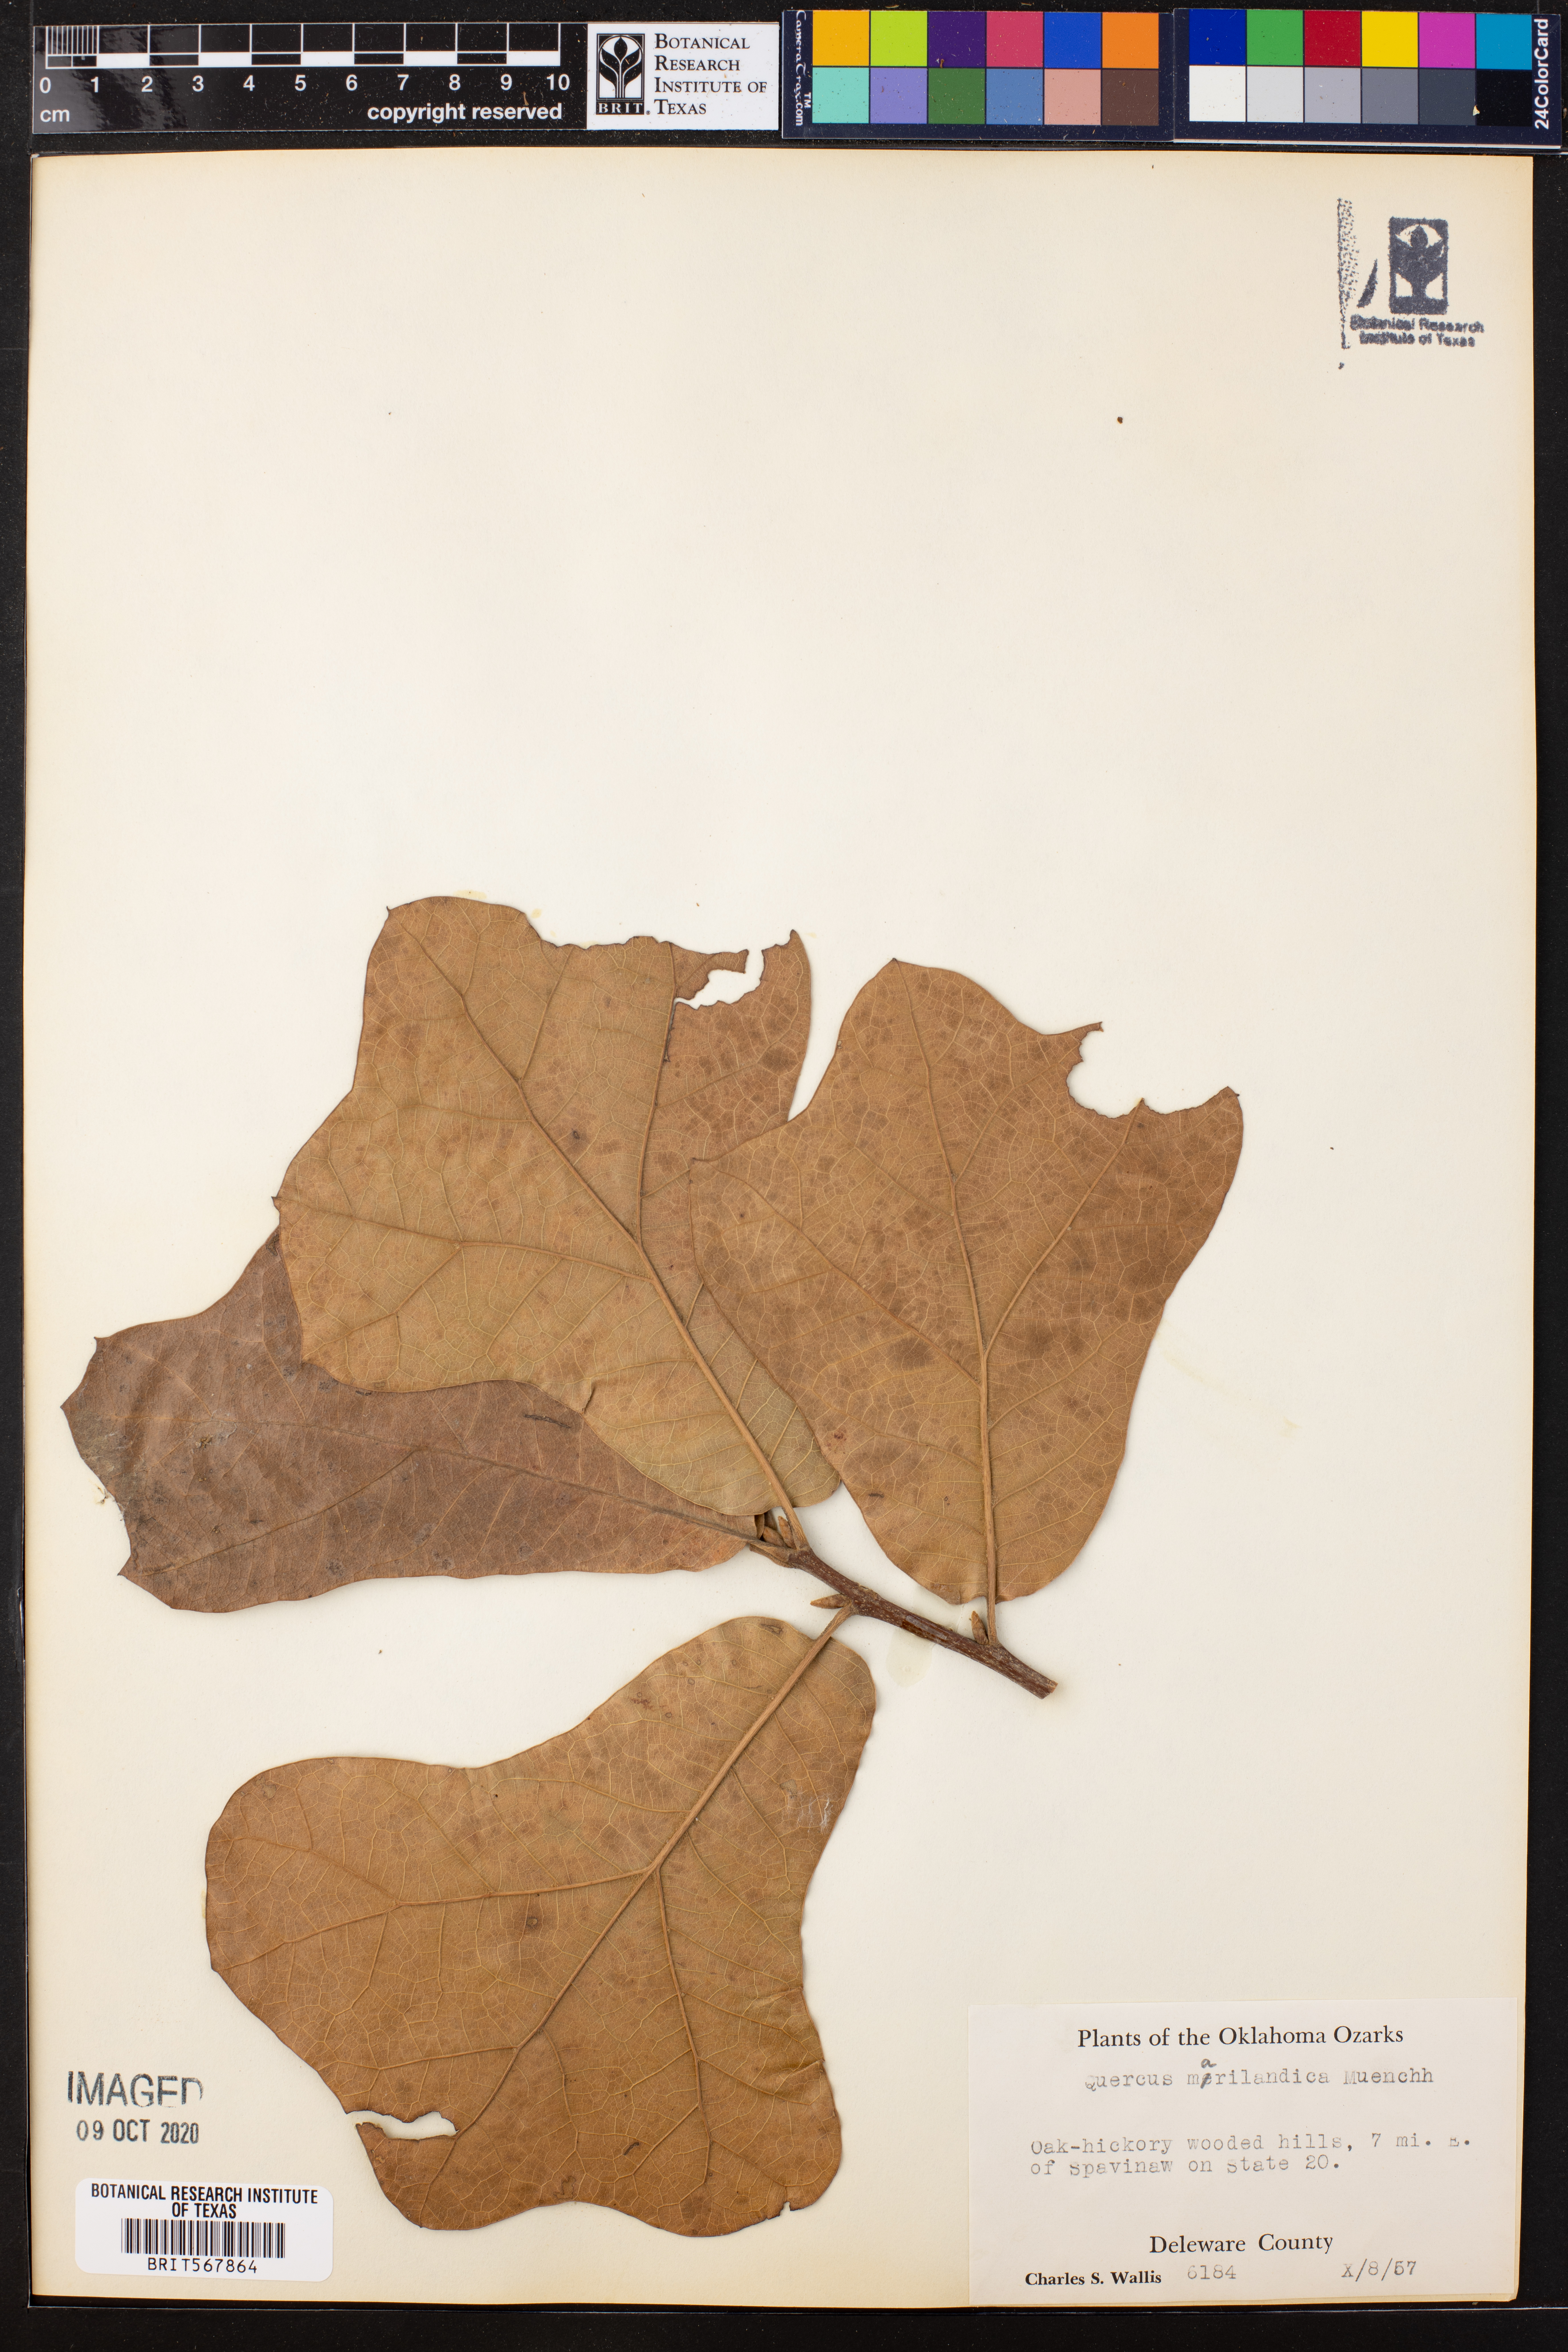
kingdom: Plantae
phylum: Tracheophyta
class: Magnoliopsida
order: Fagales
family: Fagaceae
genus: Quercus
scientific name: Quercus marilandica
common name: Blackjack oak
